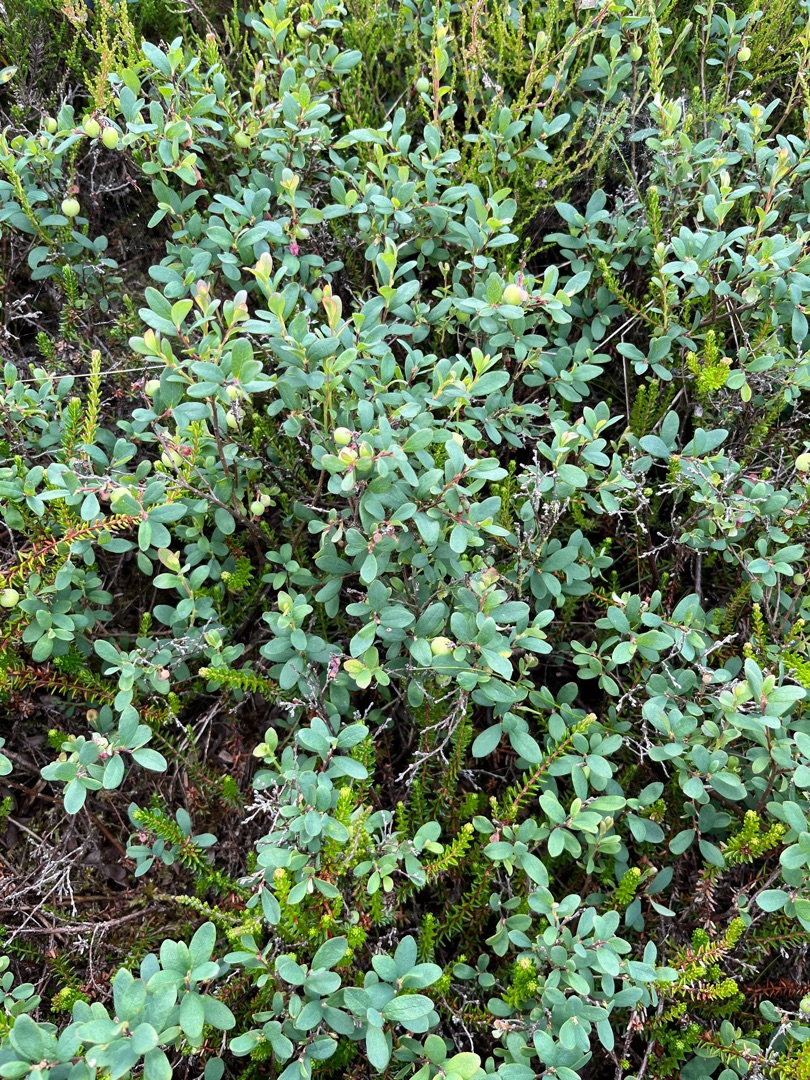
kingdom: Plantae
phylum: Tracheophyta
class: Magnoliopsida
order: Ericales
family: Ericaceae
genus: Vaccinium
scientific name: Vaccinium uliginosum
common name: Mose-bølle
